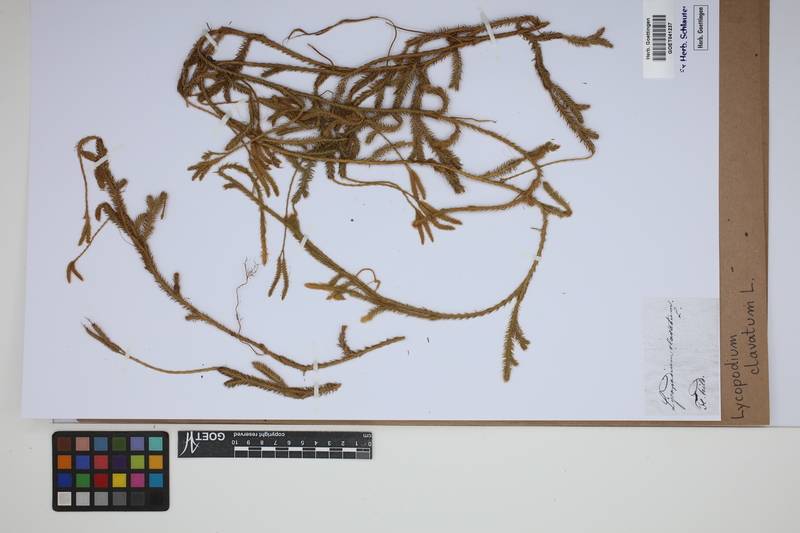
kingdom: Plantae
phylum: Tracheophyta
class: Lycopodiopsida
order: Lycopodiales
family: Lycopodiaceae
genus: Lycopodium
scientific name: Lycopodium clavatum
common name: Stag's-horn clubmoss
